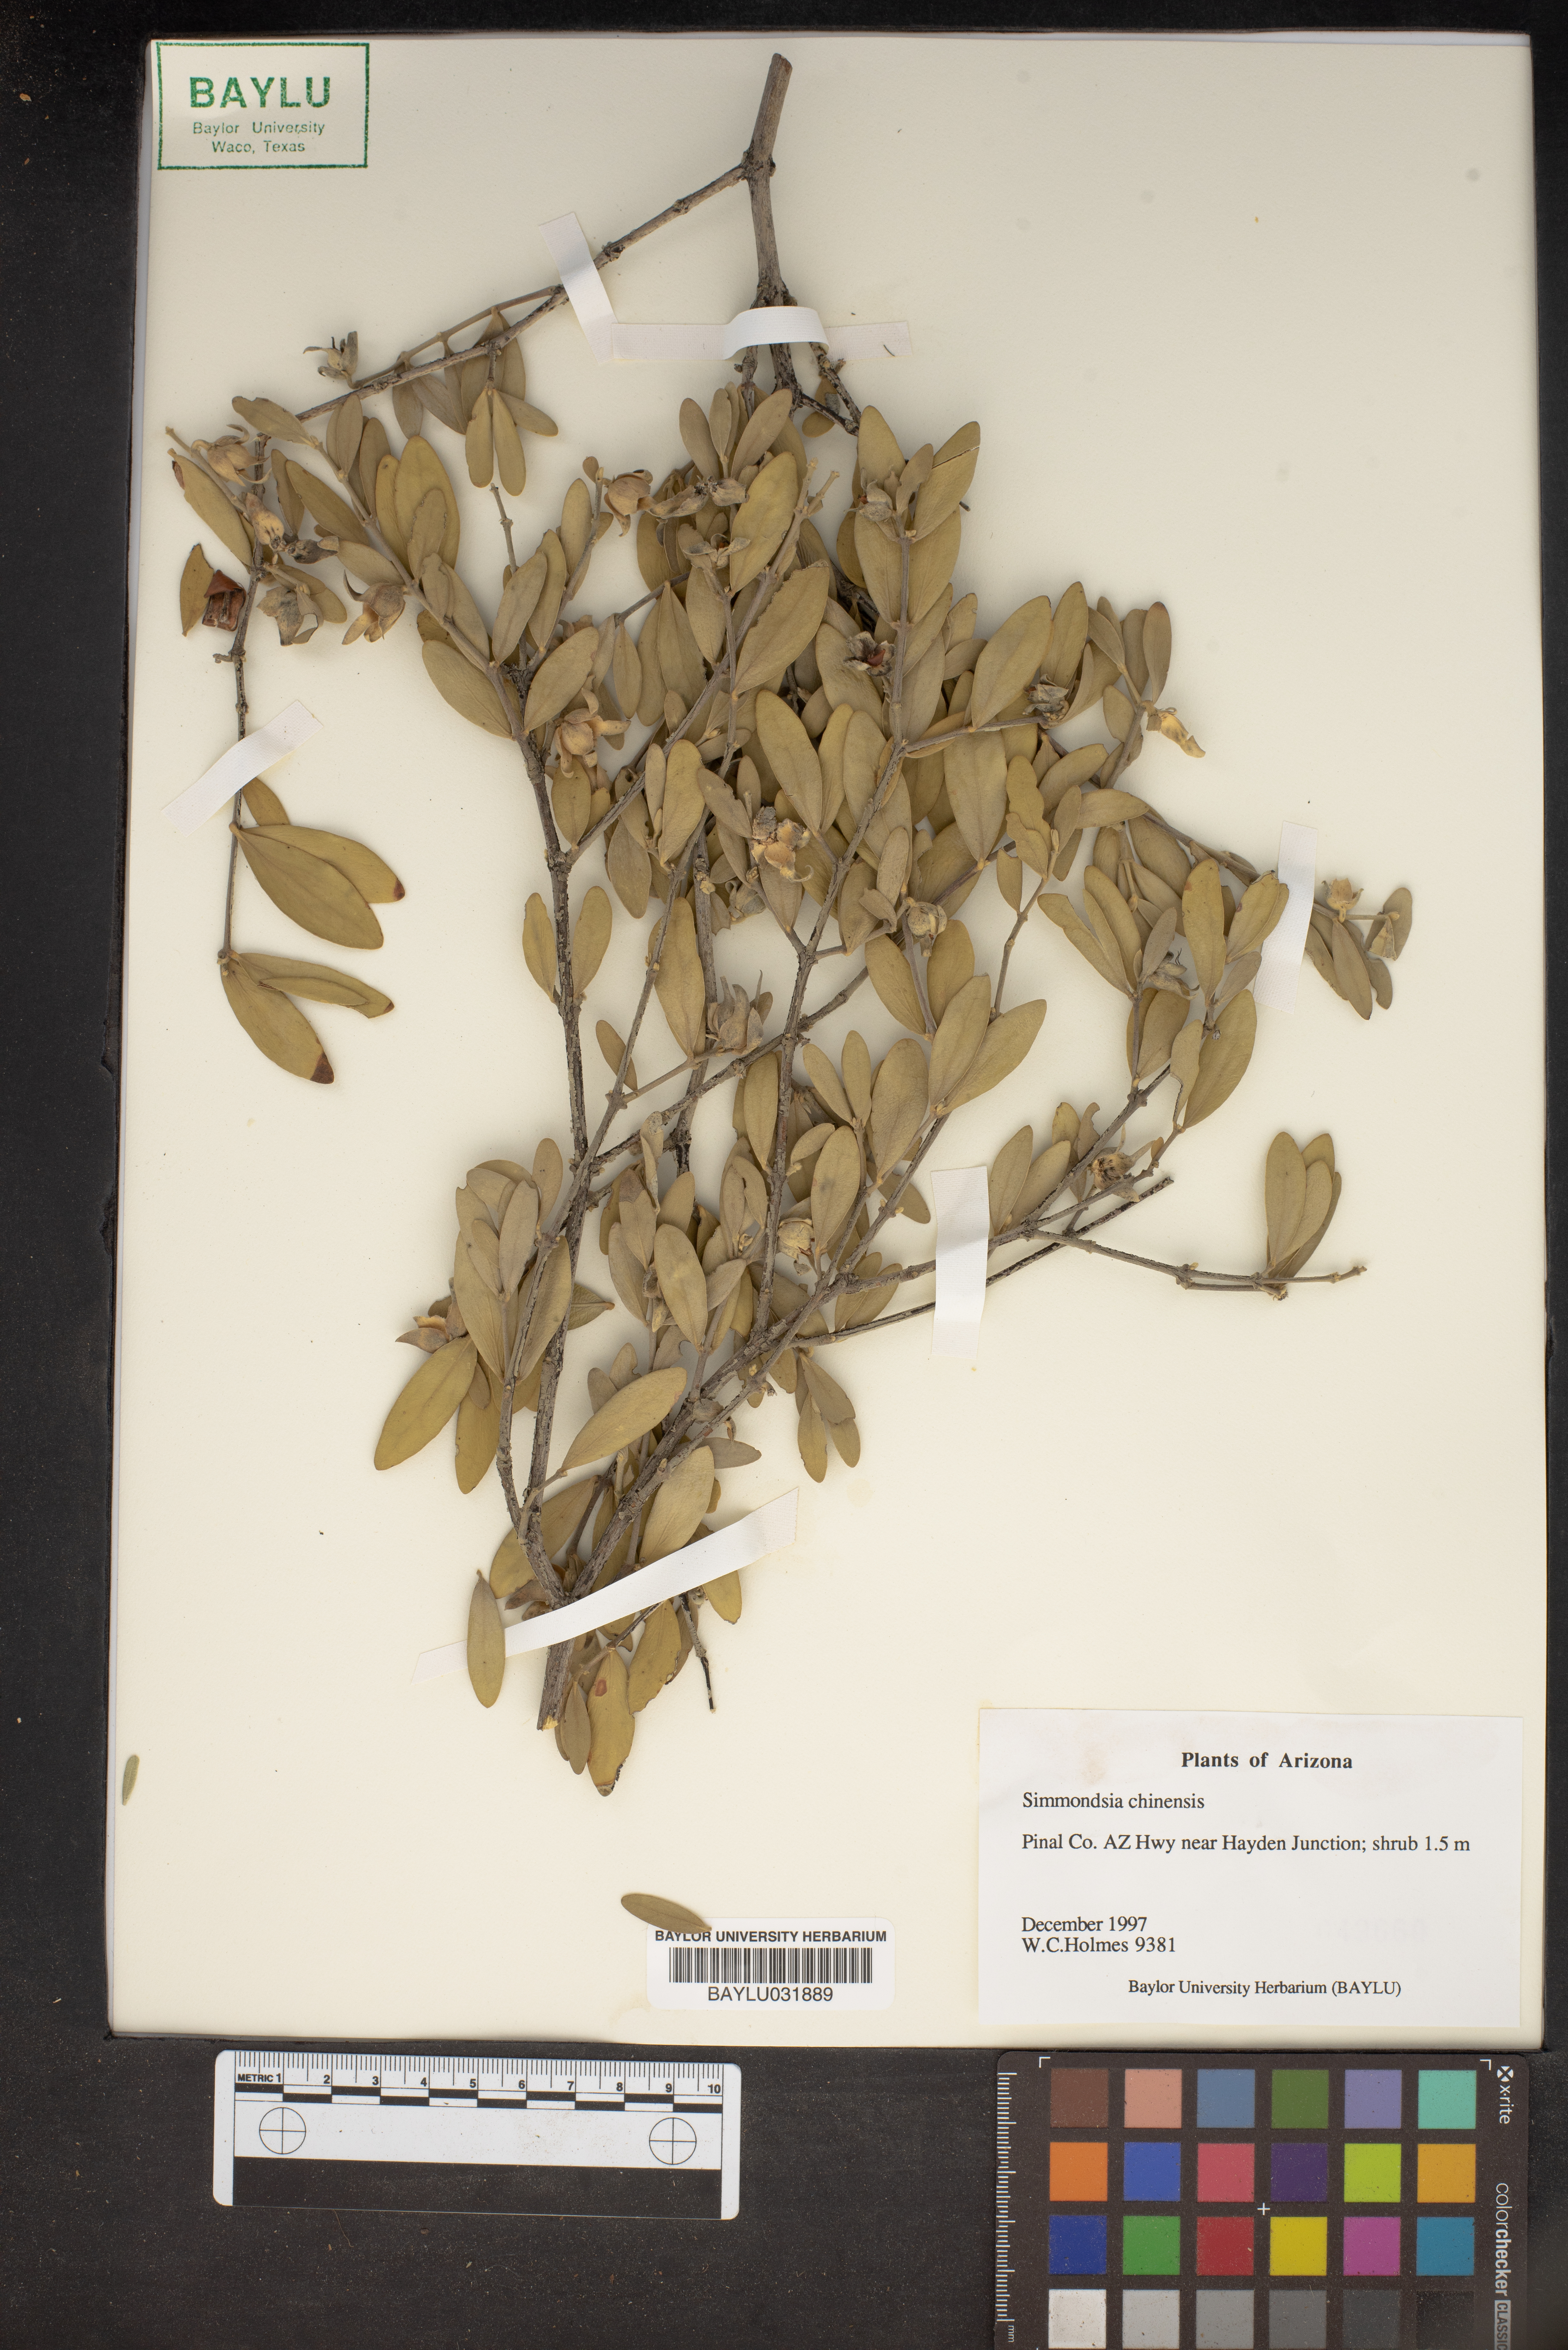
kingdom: Plantae
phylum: Tracheophyta
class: Magnoliopsida
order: Caryophyllales
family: Simmondsiaceae
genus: Simmondsia
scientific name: Simmondsia chinensis
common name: Jojoba
